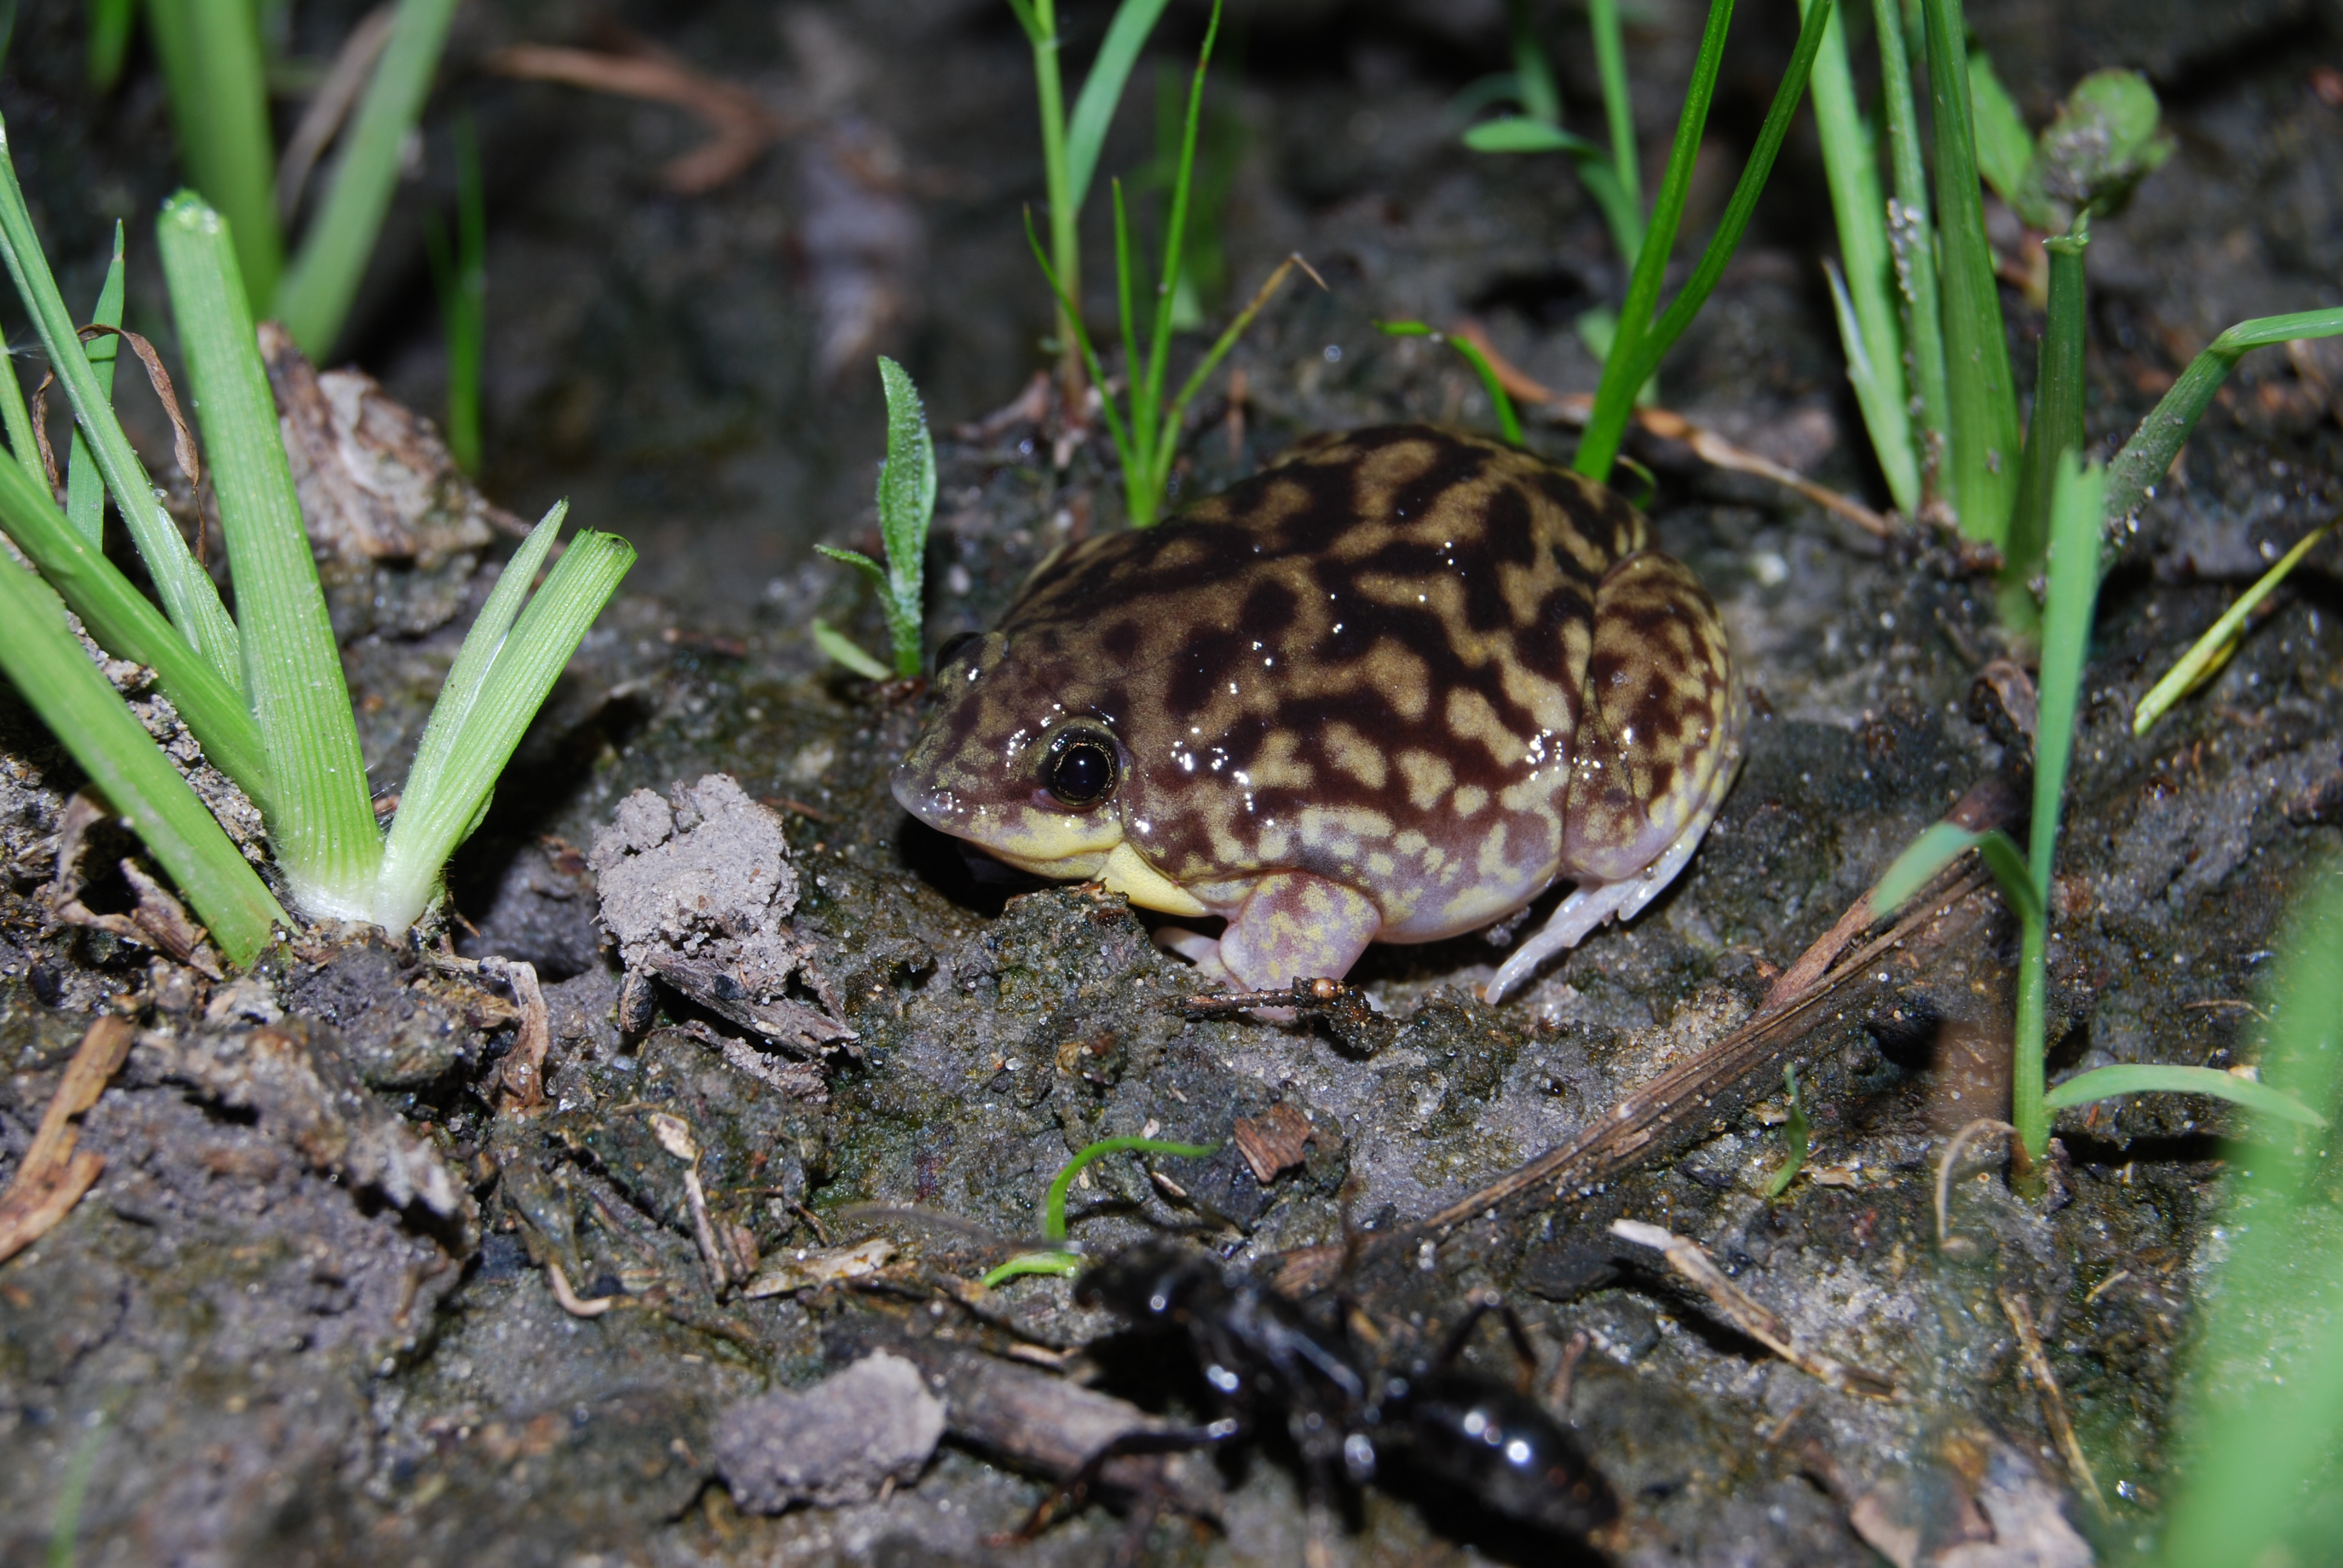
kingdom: Animalia
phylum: Chordata
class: Amphibia
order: Anura
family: Hemisotidae
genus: Hemisus
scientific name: Hemisus marmoratus
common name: Mottled shovel-nosed frog
